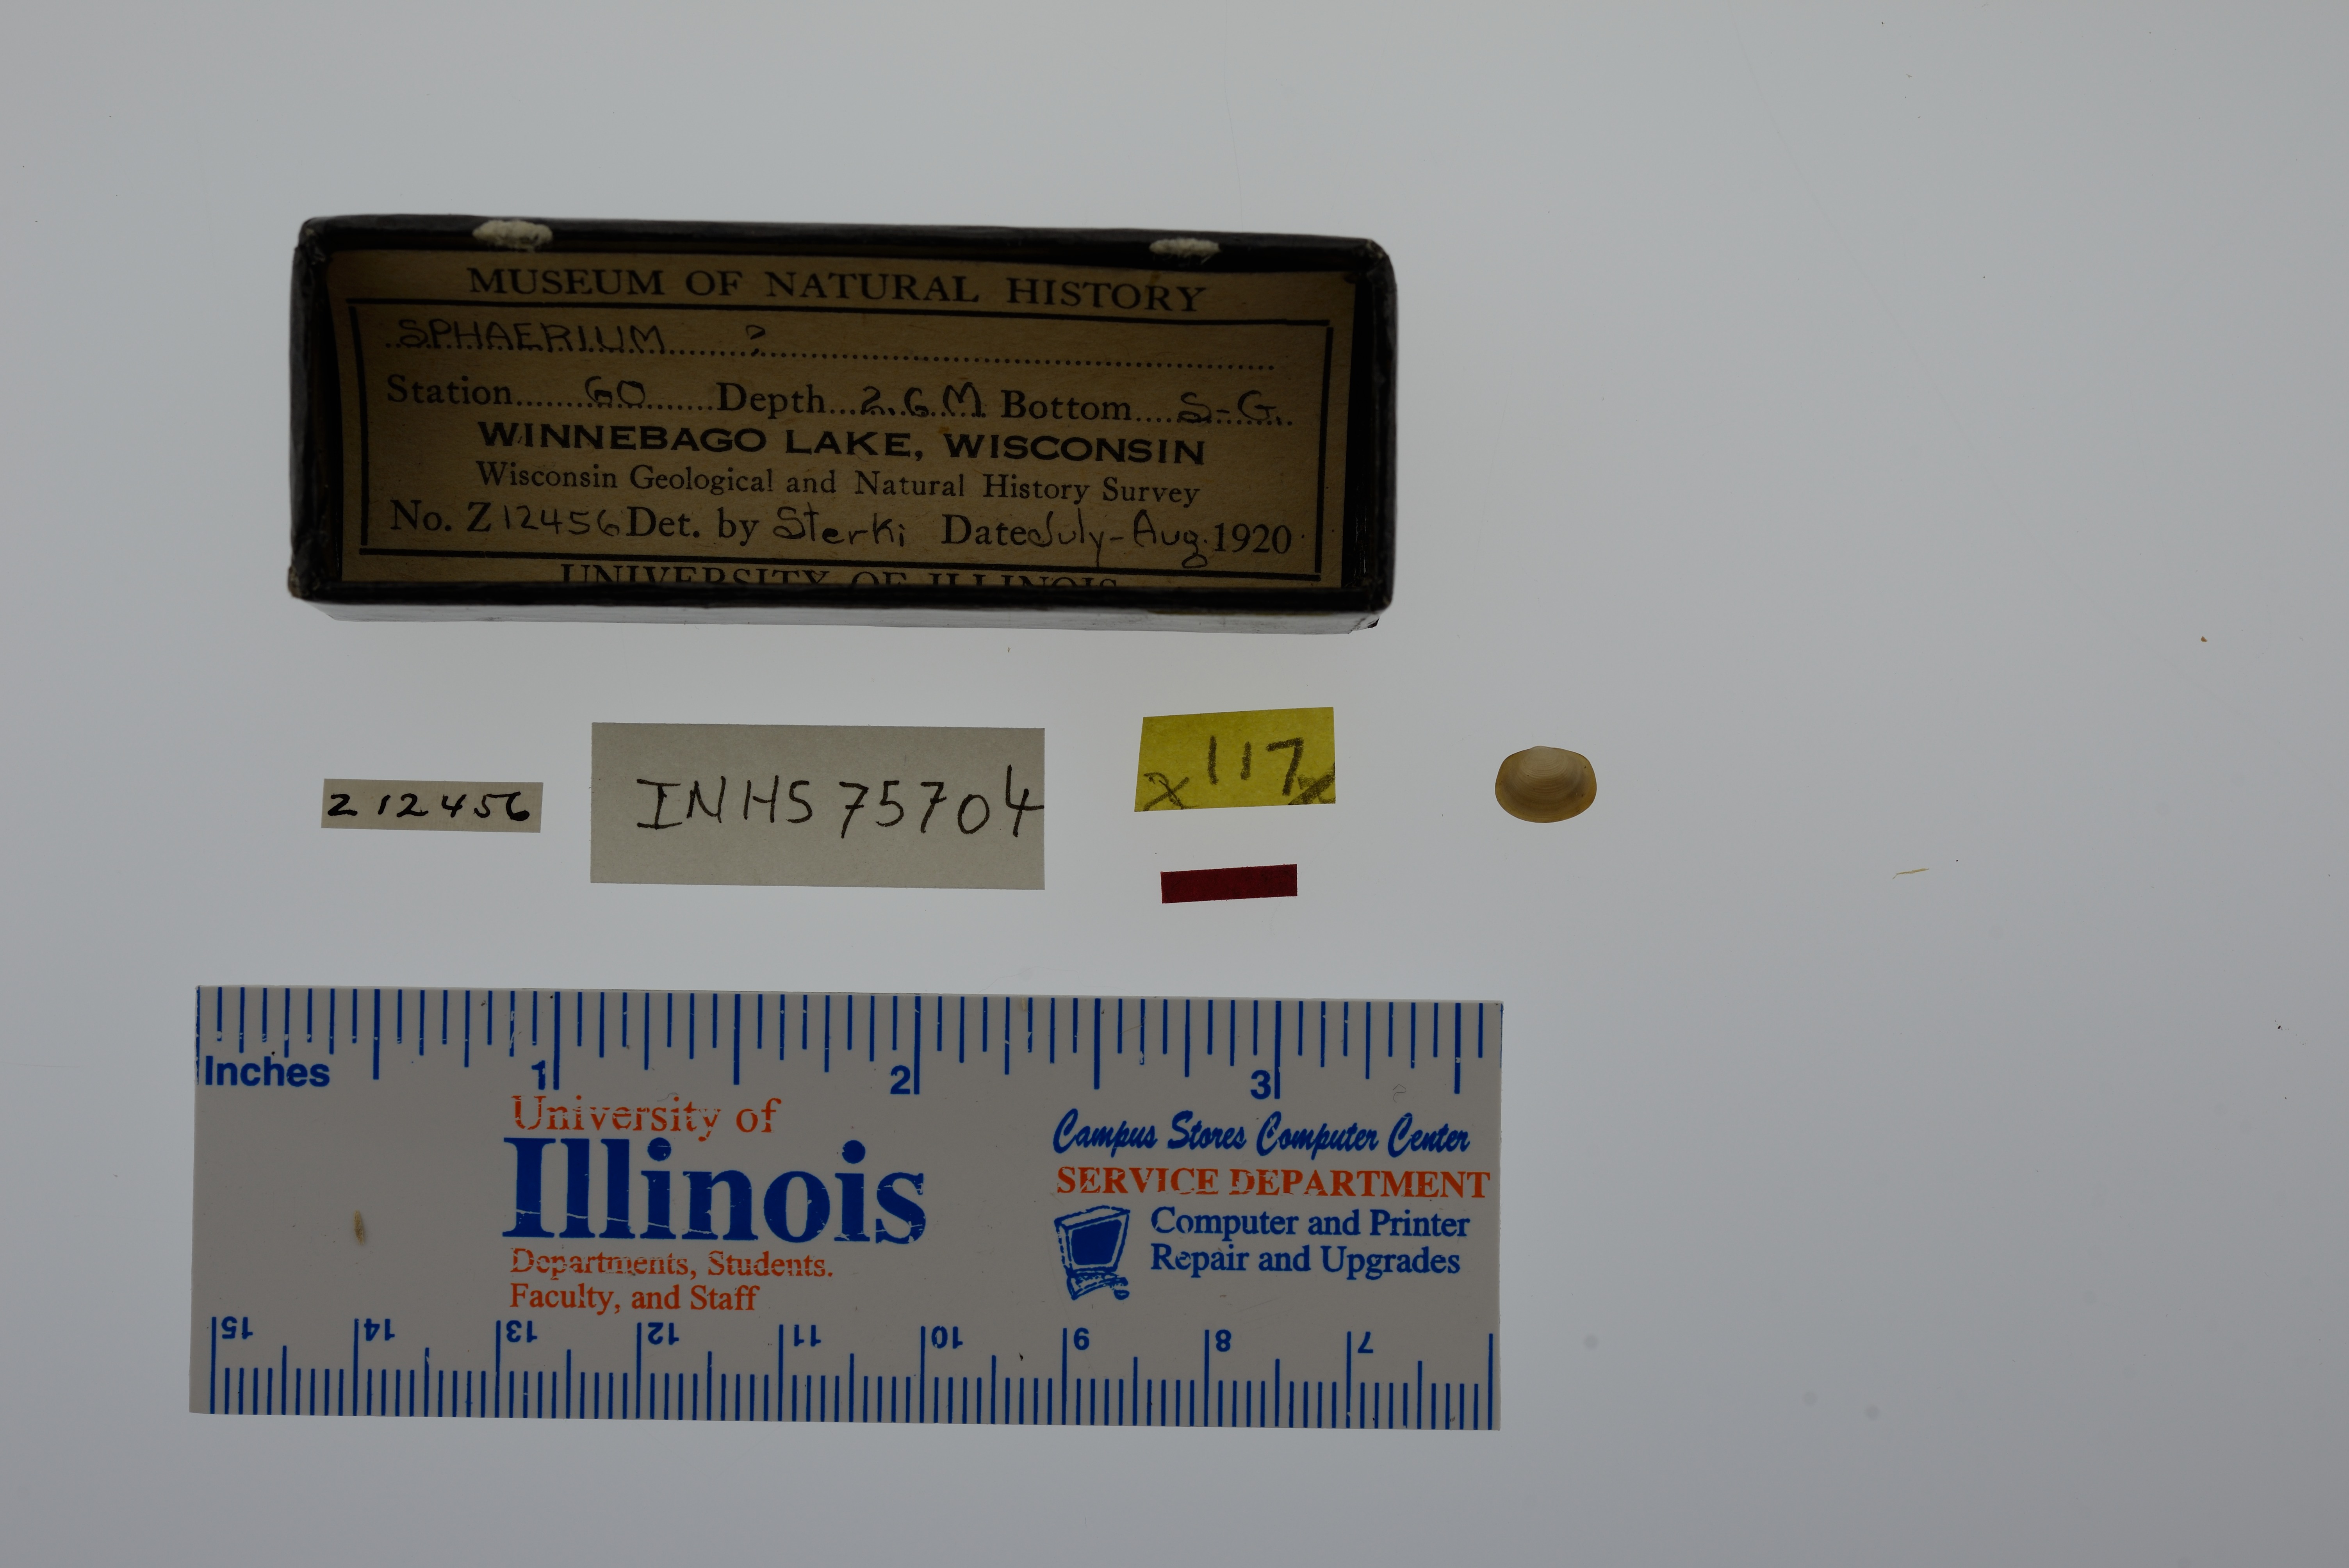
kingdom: Animalia
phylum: Mollusca
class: Bivalvia
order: Sphaeriida
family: Sphaeriidae
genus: Sphaerium
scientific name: Sphaerium
